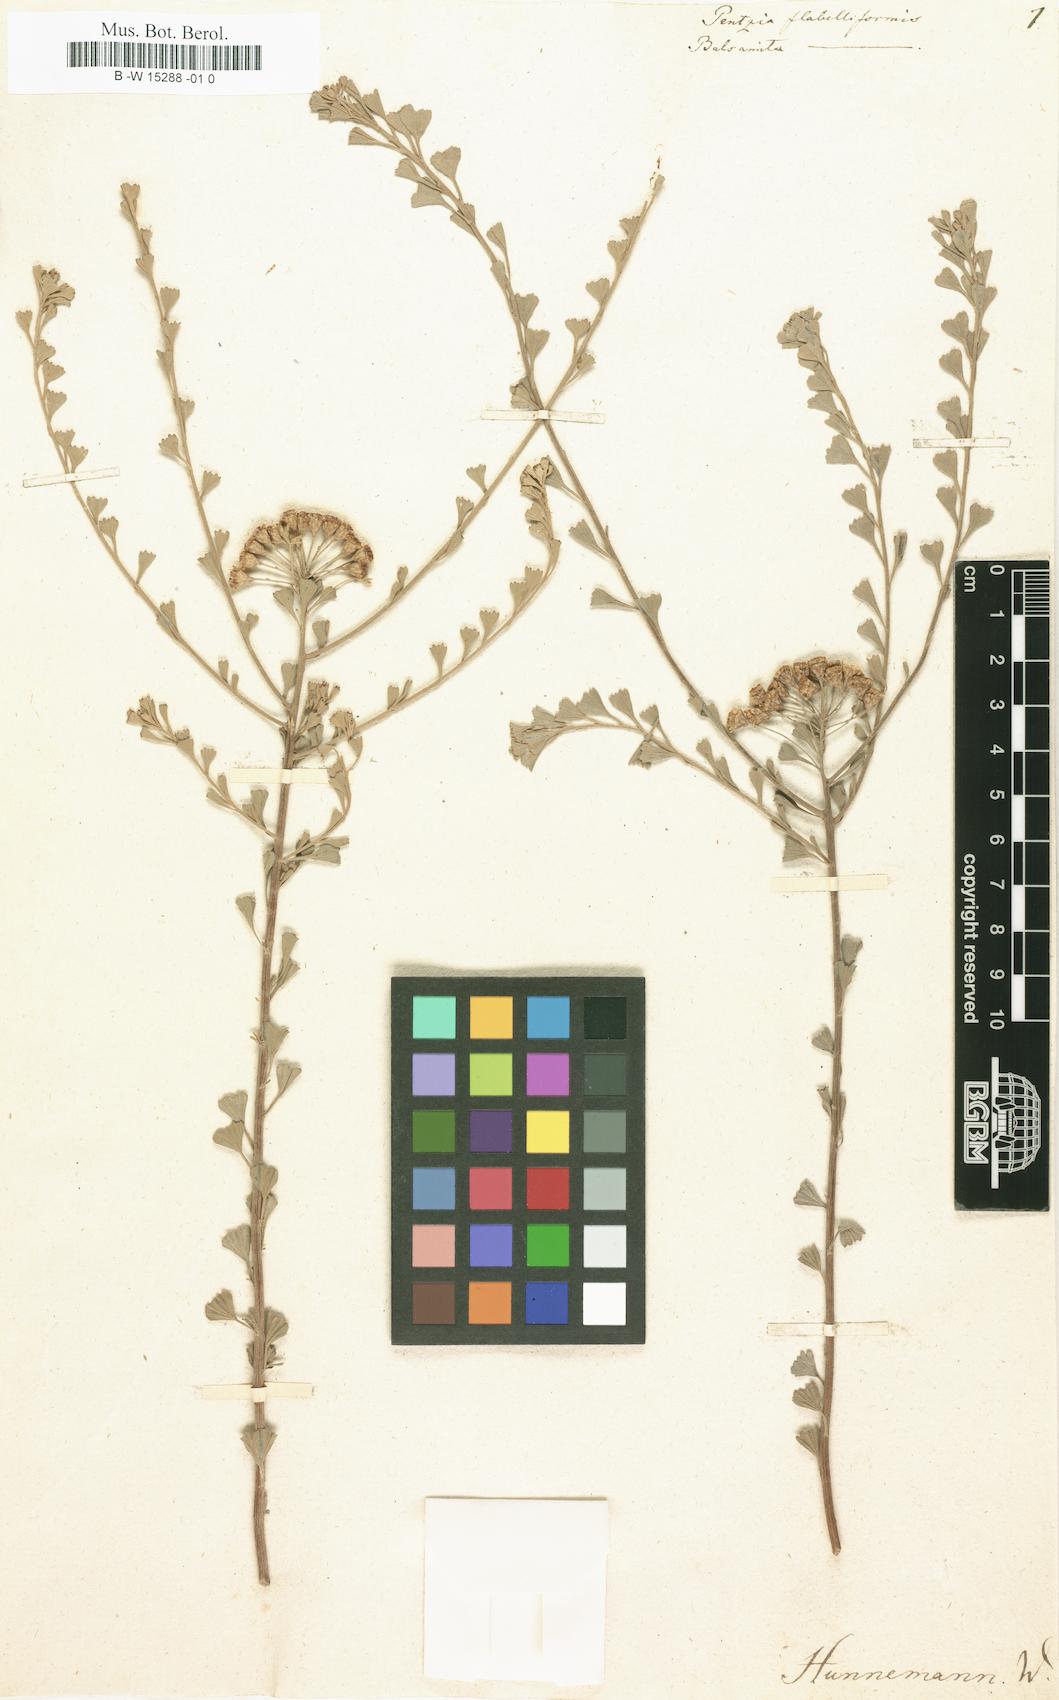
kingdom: Plantae
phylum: Tracheophyta
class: Magnoliopsida
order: Asterales
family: Asteraceae
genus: Pentzia
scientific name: Pentzia dentata
